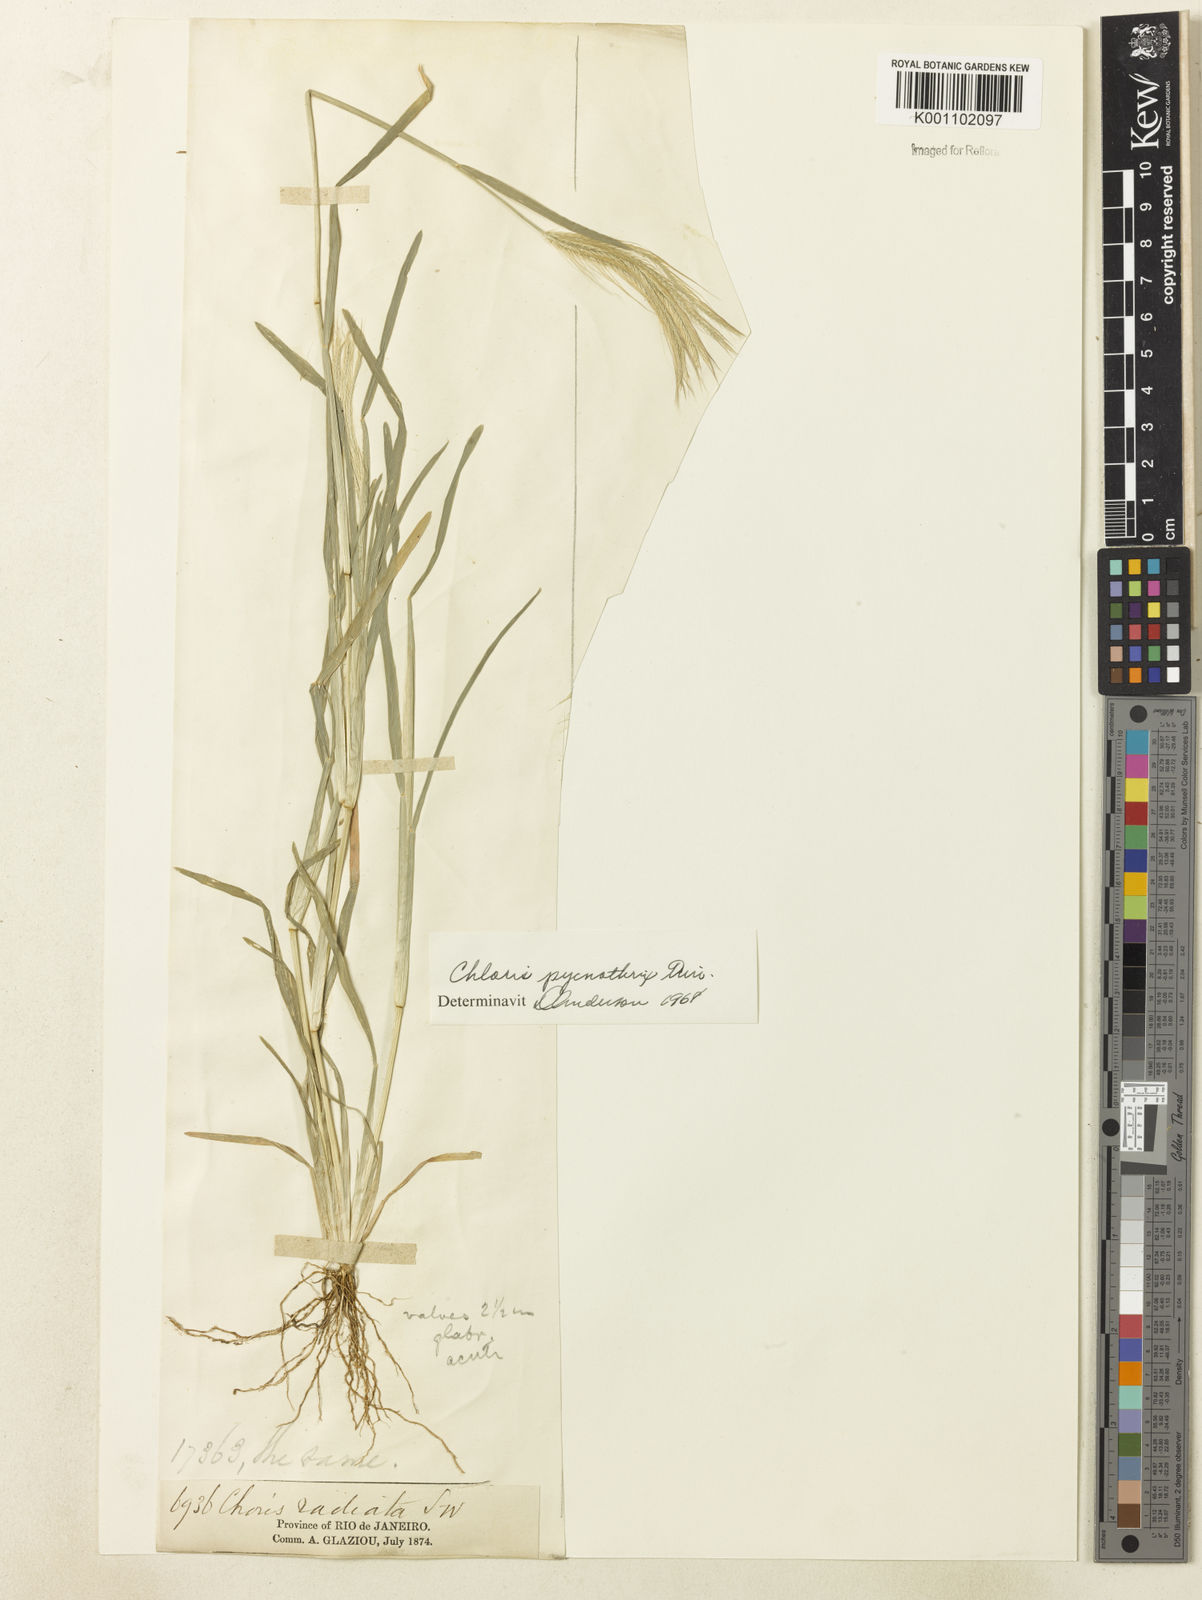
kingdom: Plantae
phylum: Tracheophyta
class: Liliopsida
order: Poales
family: Poaceae
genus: Chloris
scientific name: Chloris pycnothrix
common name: Spiderweb chloris
